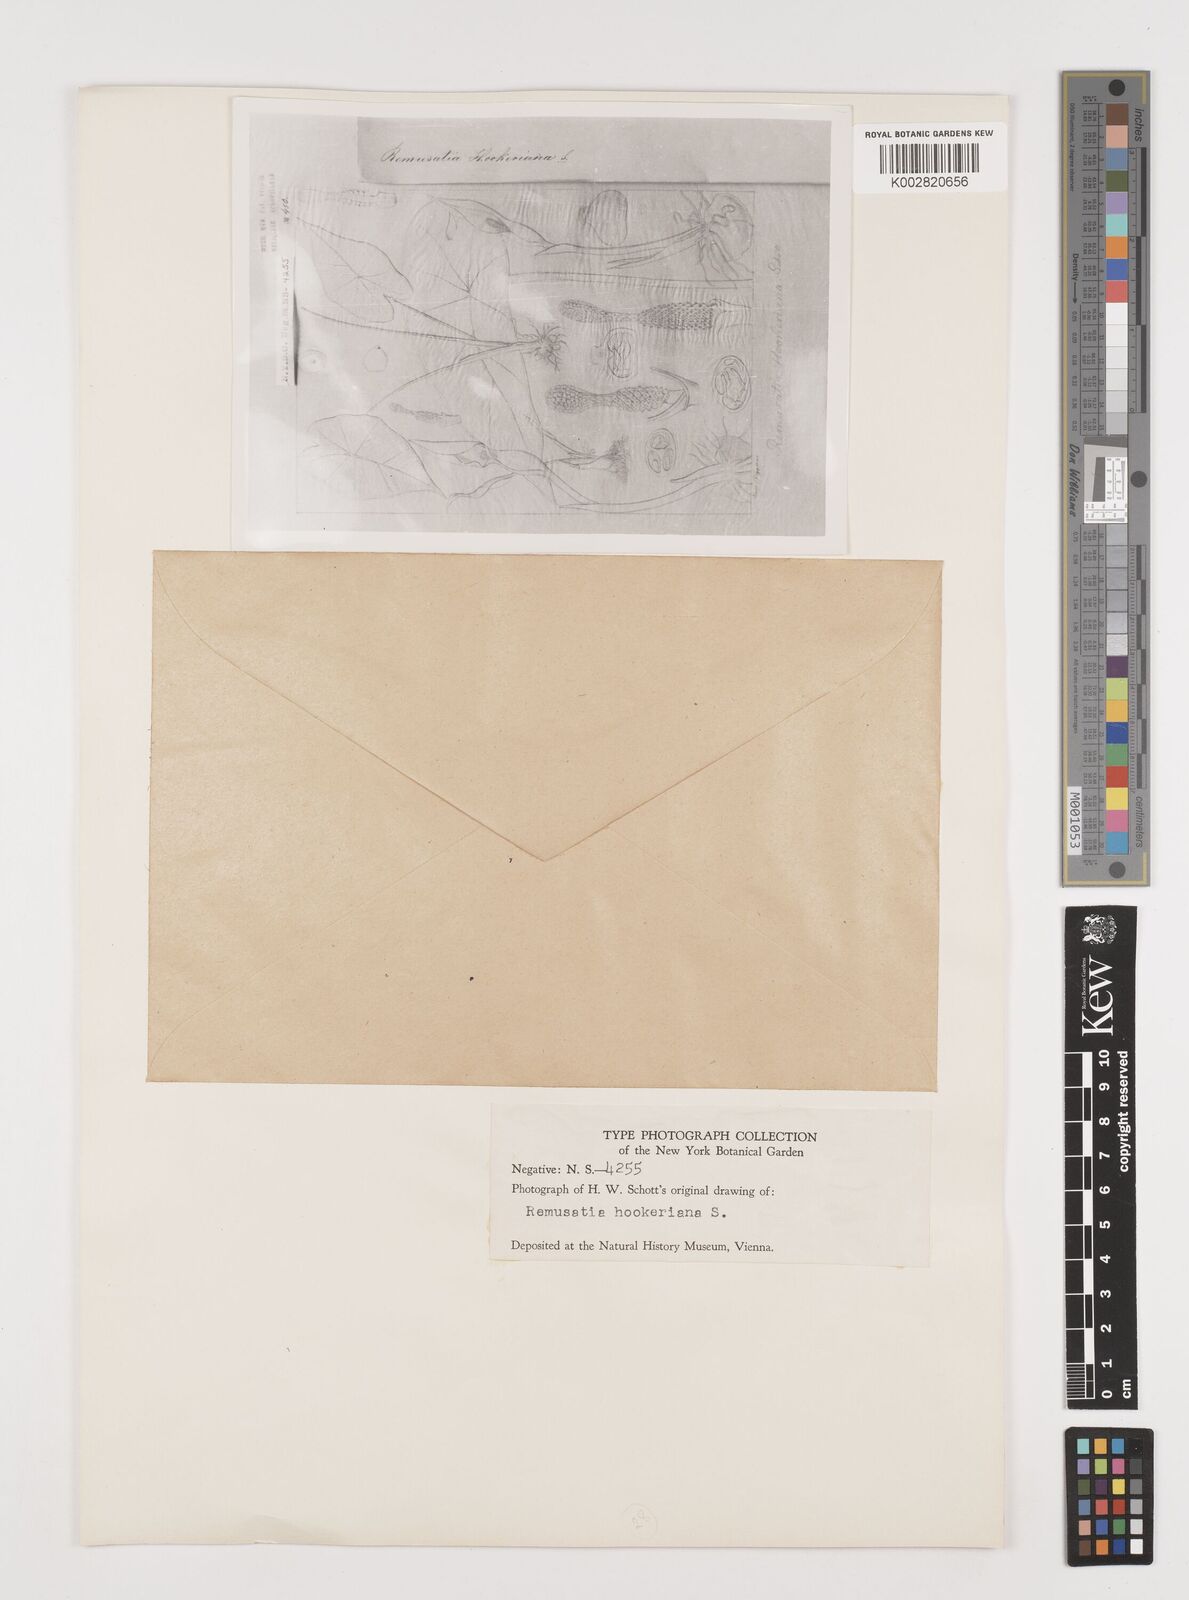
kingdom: Plantae
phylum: Tracheophyta
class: Liliopsida
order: Alismatales
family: Araceae
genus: Remusatia
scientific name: Remusatia hookeriana
